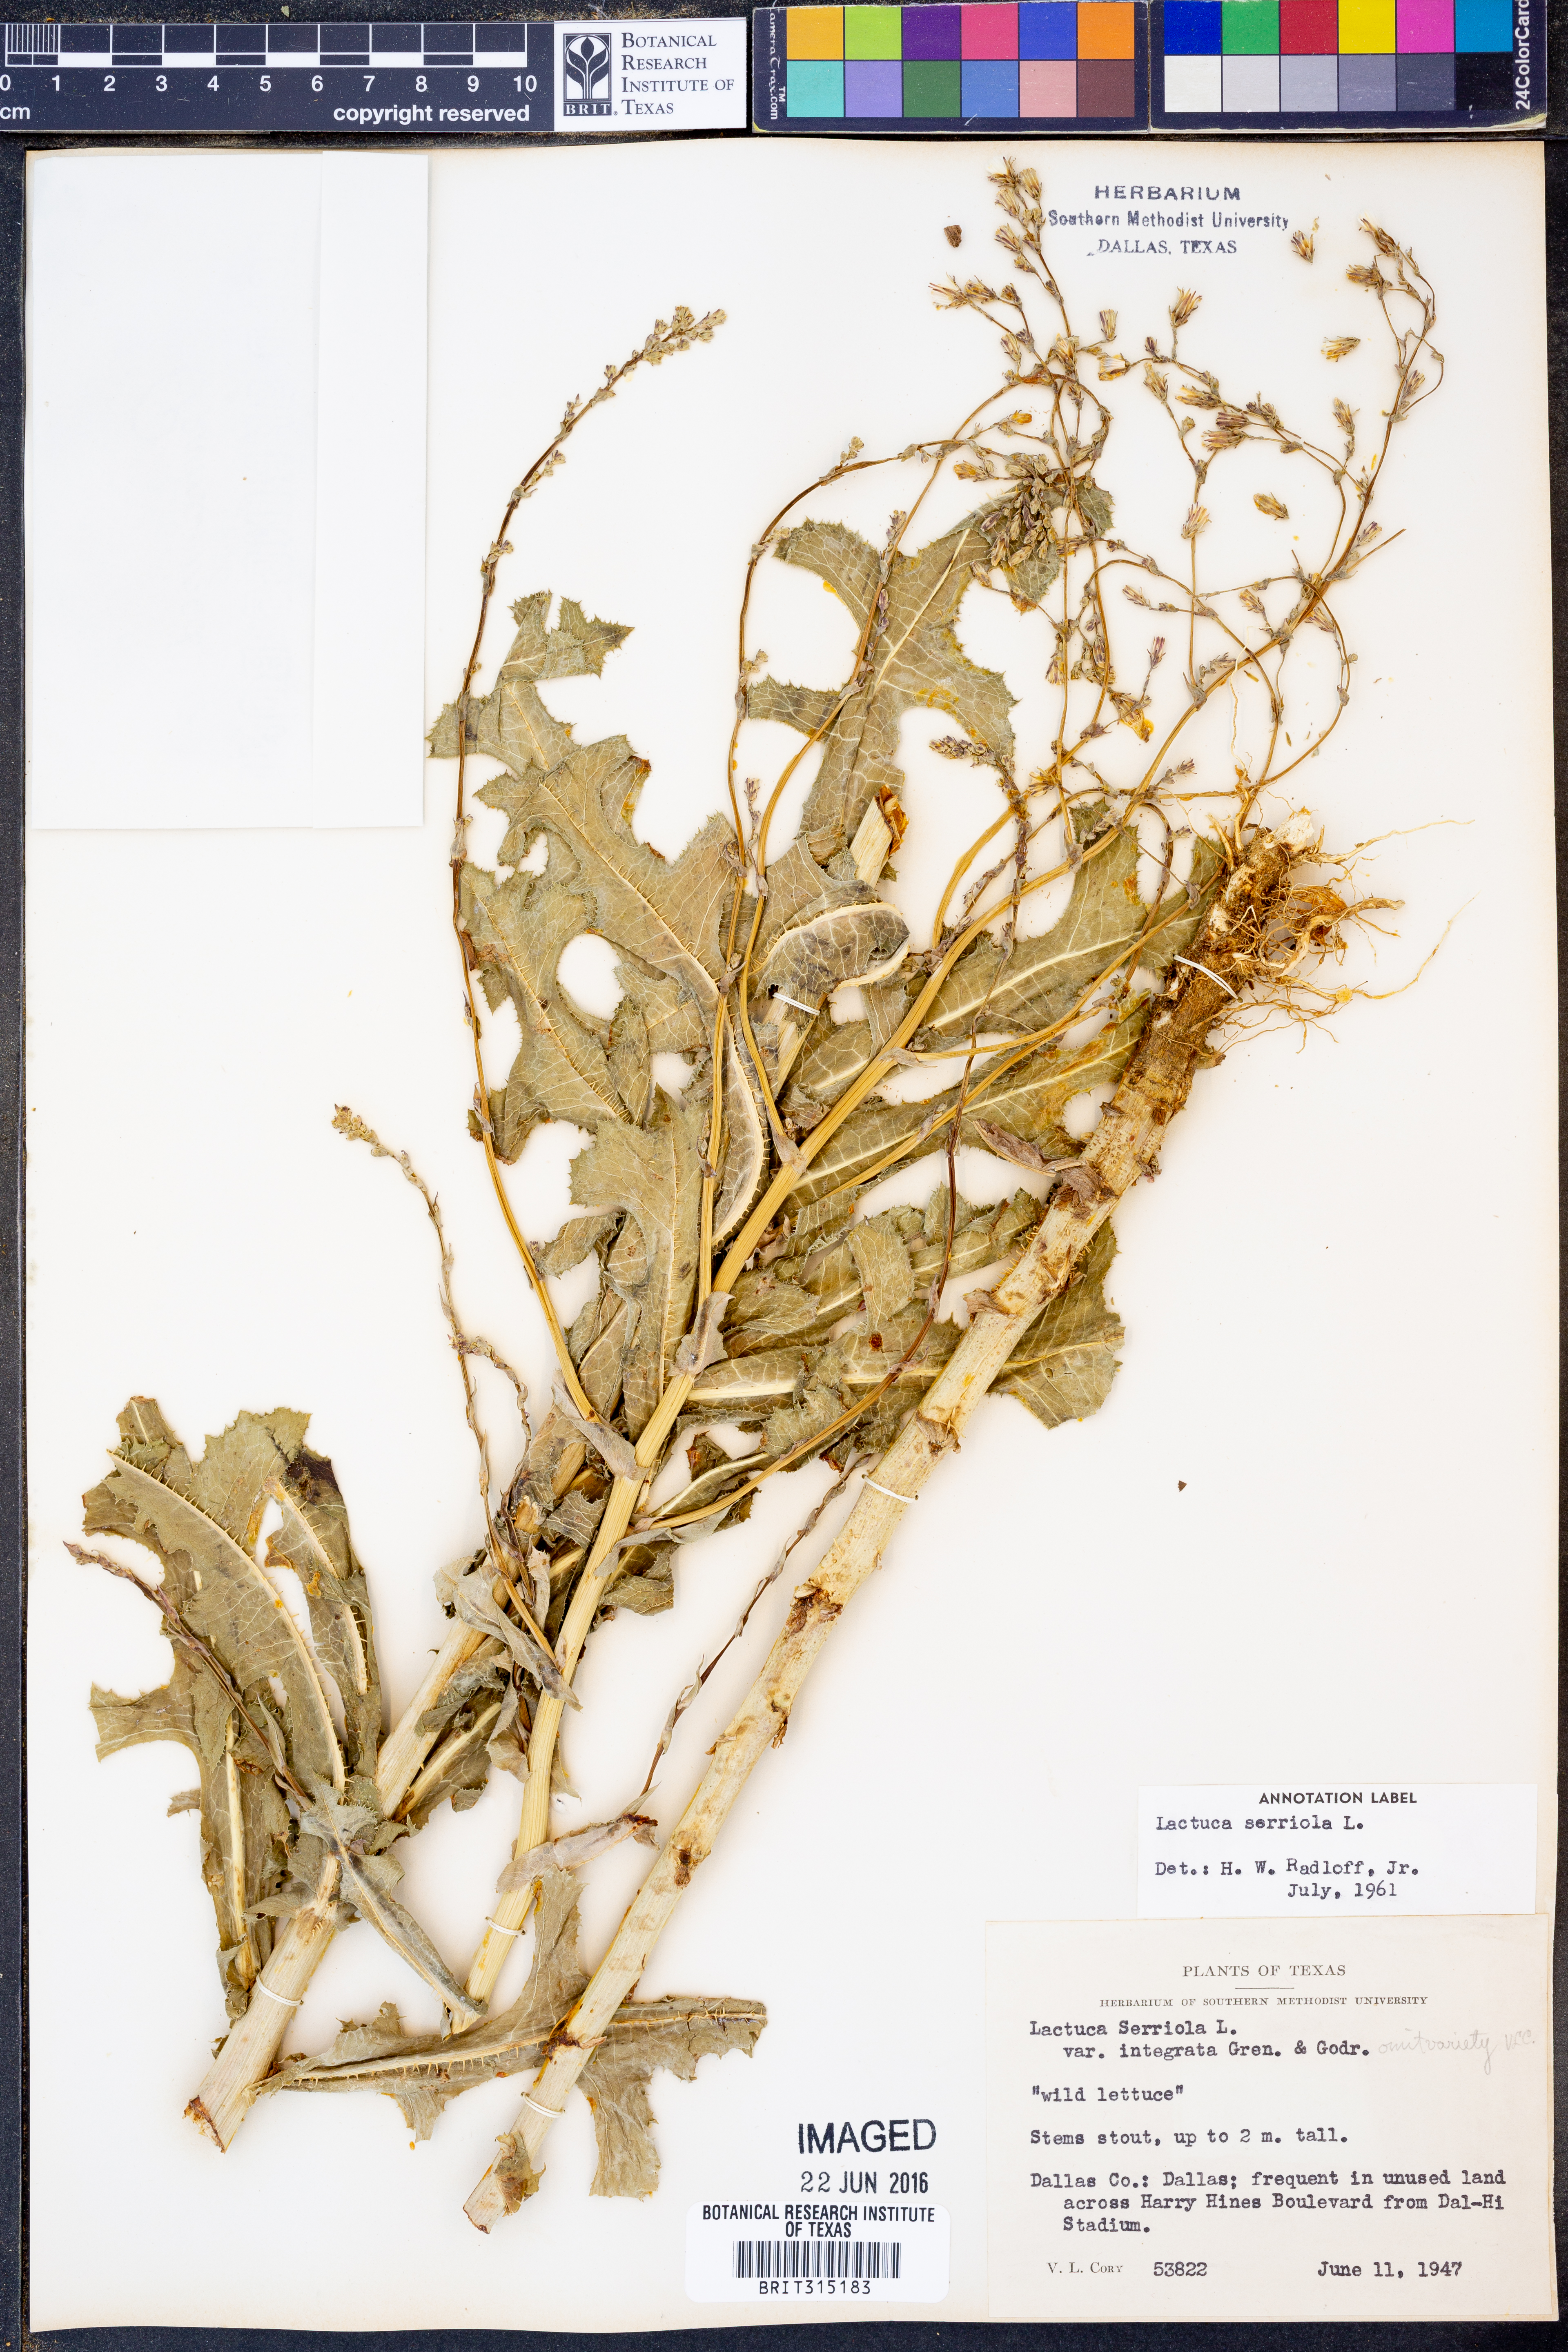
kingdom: Plantae
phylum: Tracheophyta
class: Magnoliopsida
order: Asterales
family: Asteraceae
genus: Lactuca
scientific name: Lactuca serriola
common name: Prickly lettuce
